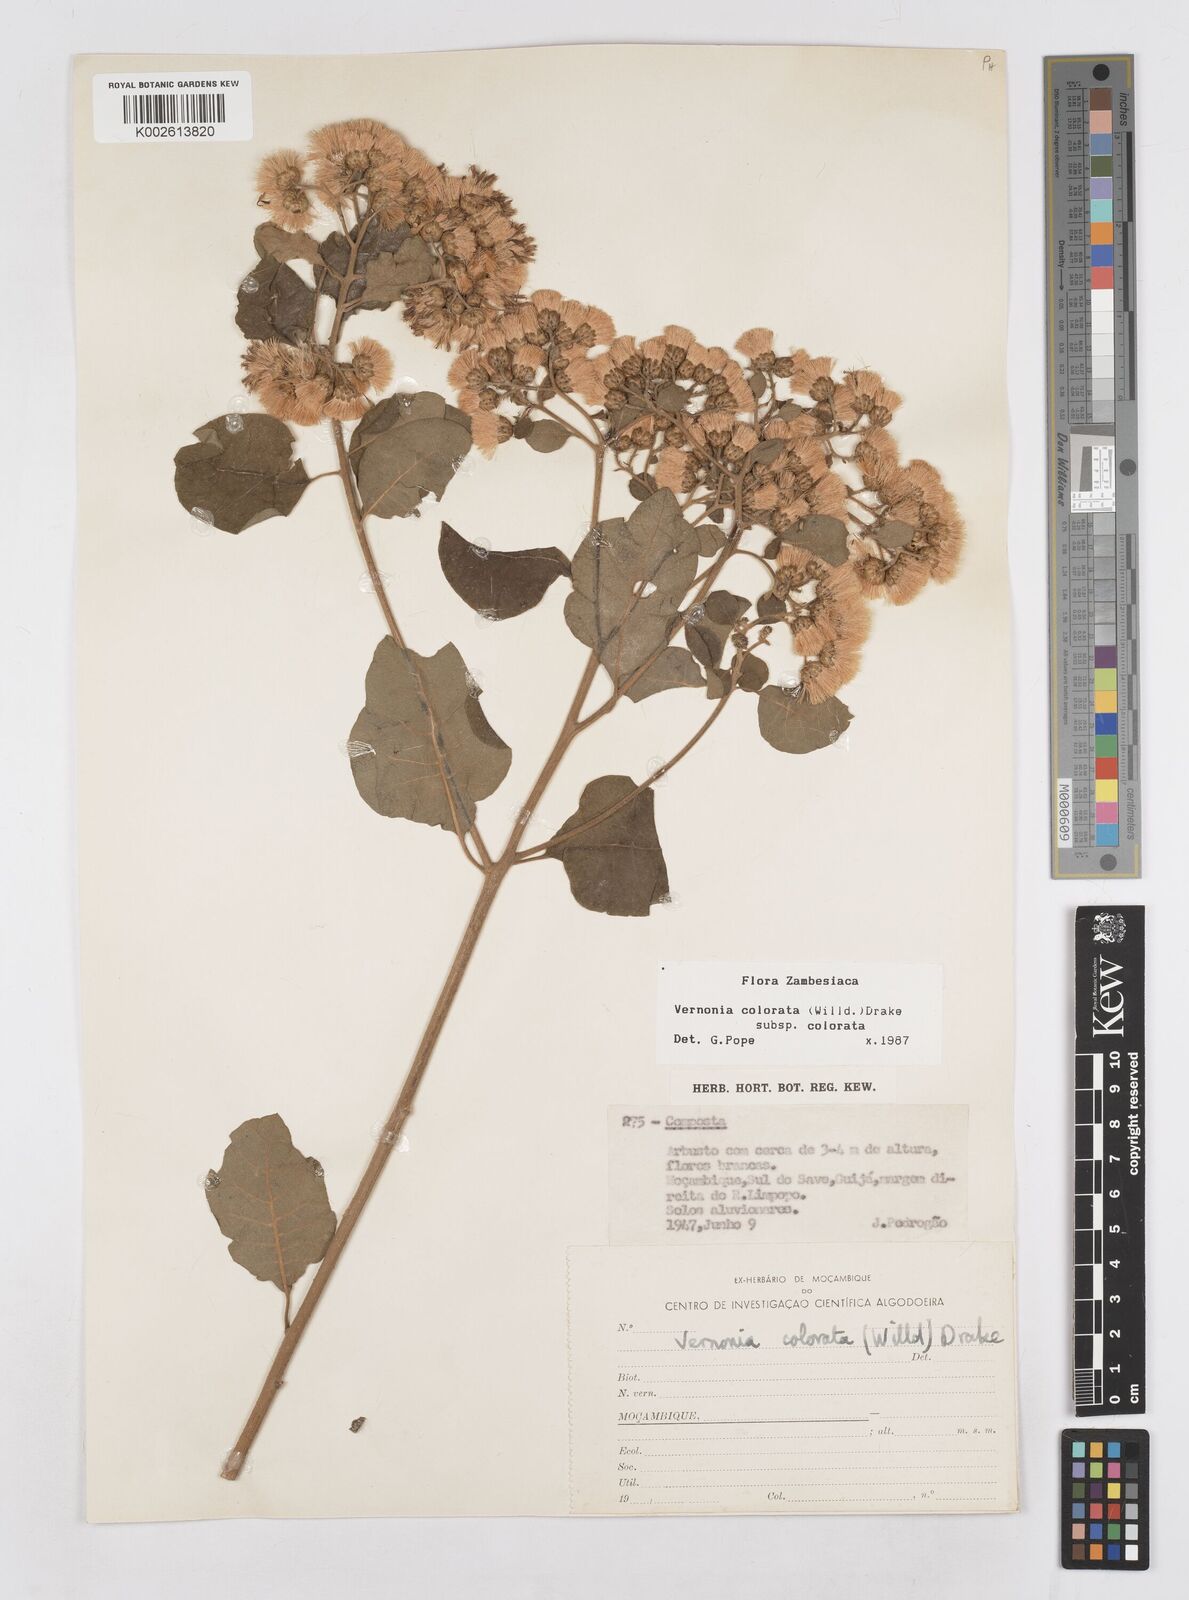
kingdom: Plantae
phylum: Tracheophyta
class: Magnoliopsida
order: Asterales
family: Asteraceae
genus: Vernonia
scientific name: Vernonia colorata
